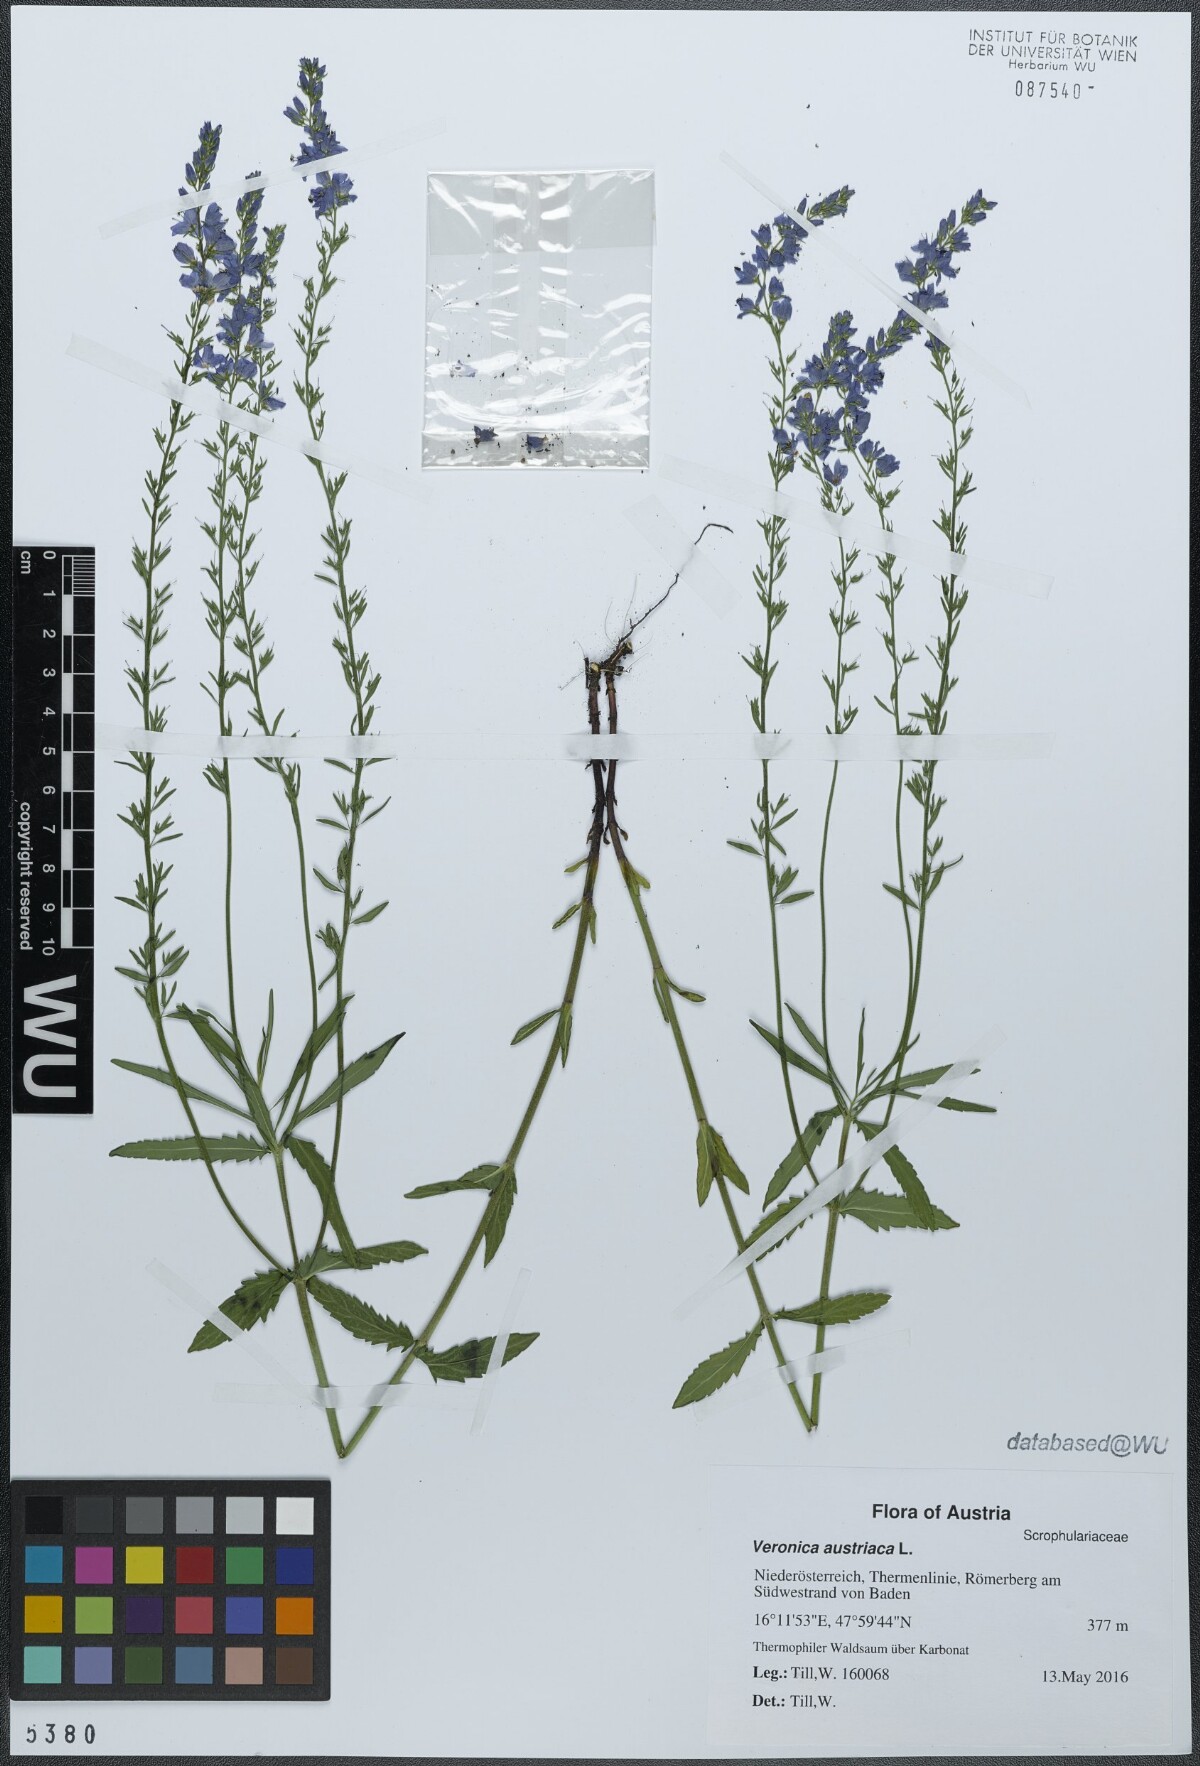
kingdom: Plantae
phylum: Tracheophyta
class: Magnoliopsida
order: Lamiales
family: Plantaginaceae
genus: Veronica
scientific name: Veronica austriaca
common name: Large speedwell
